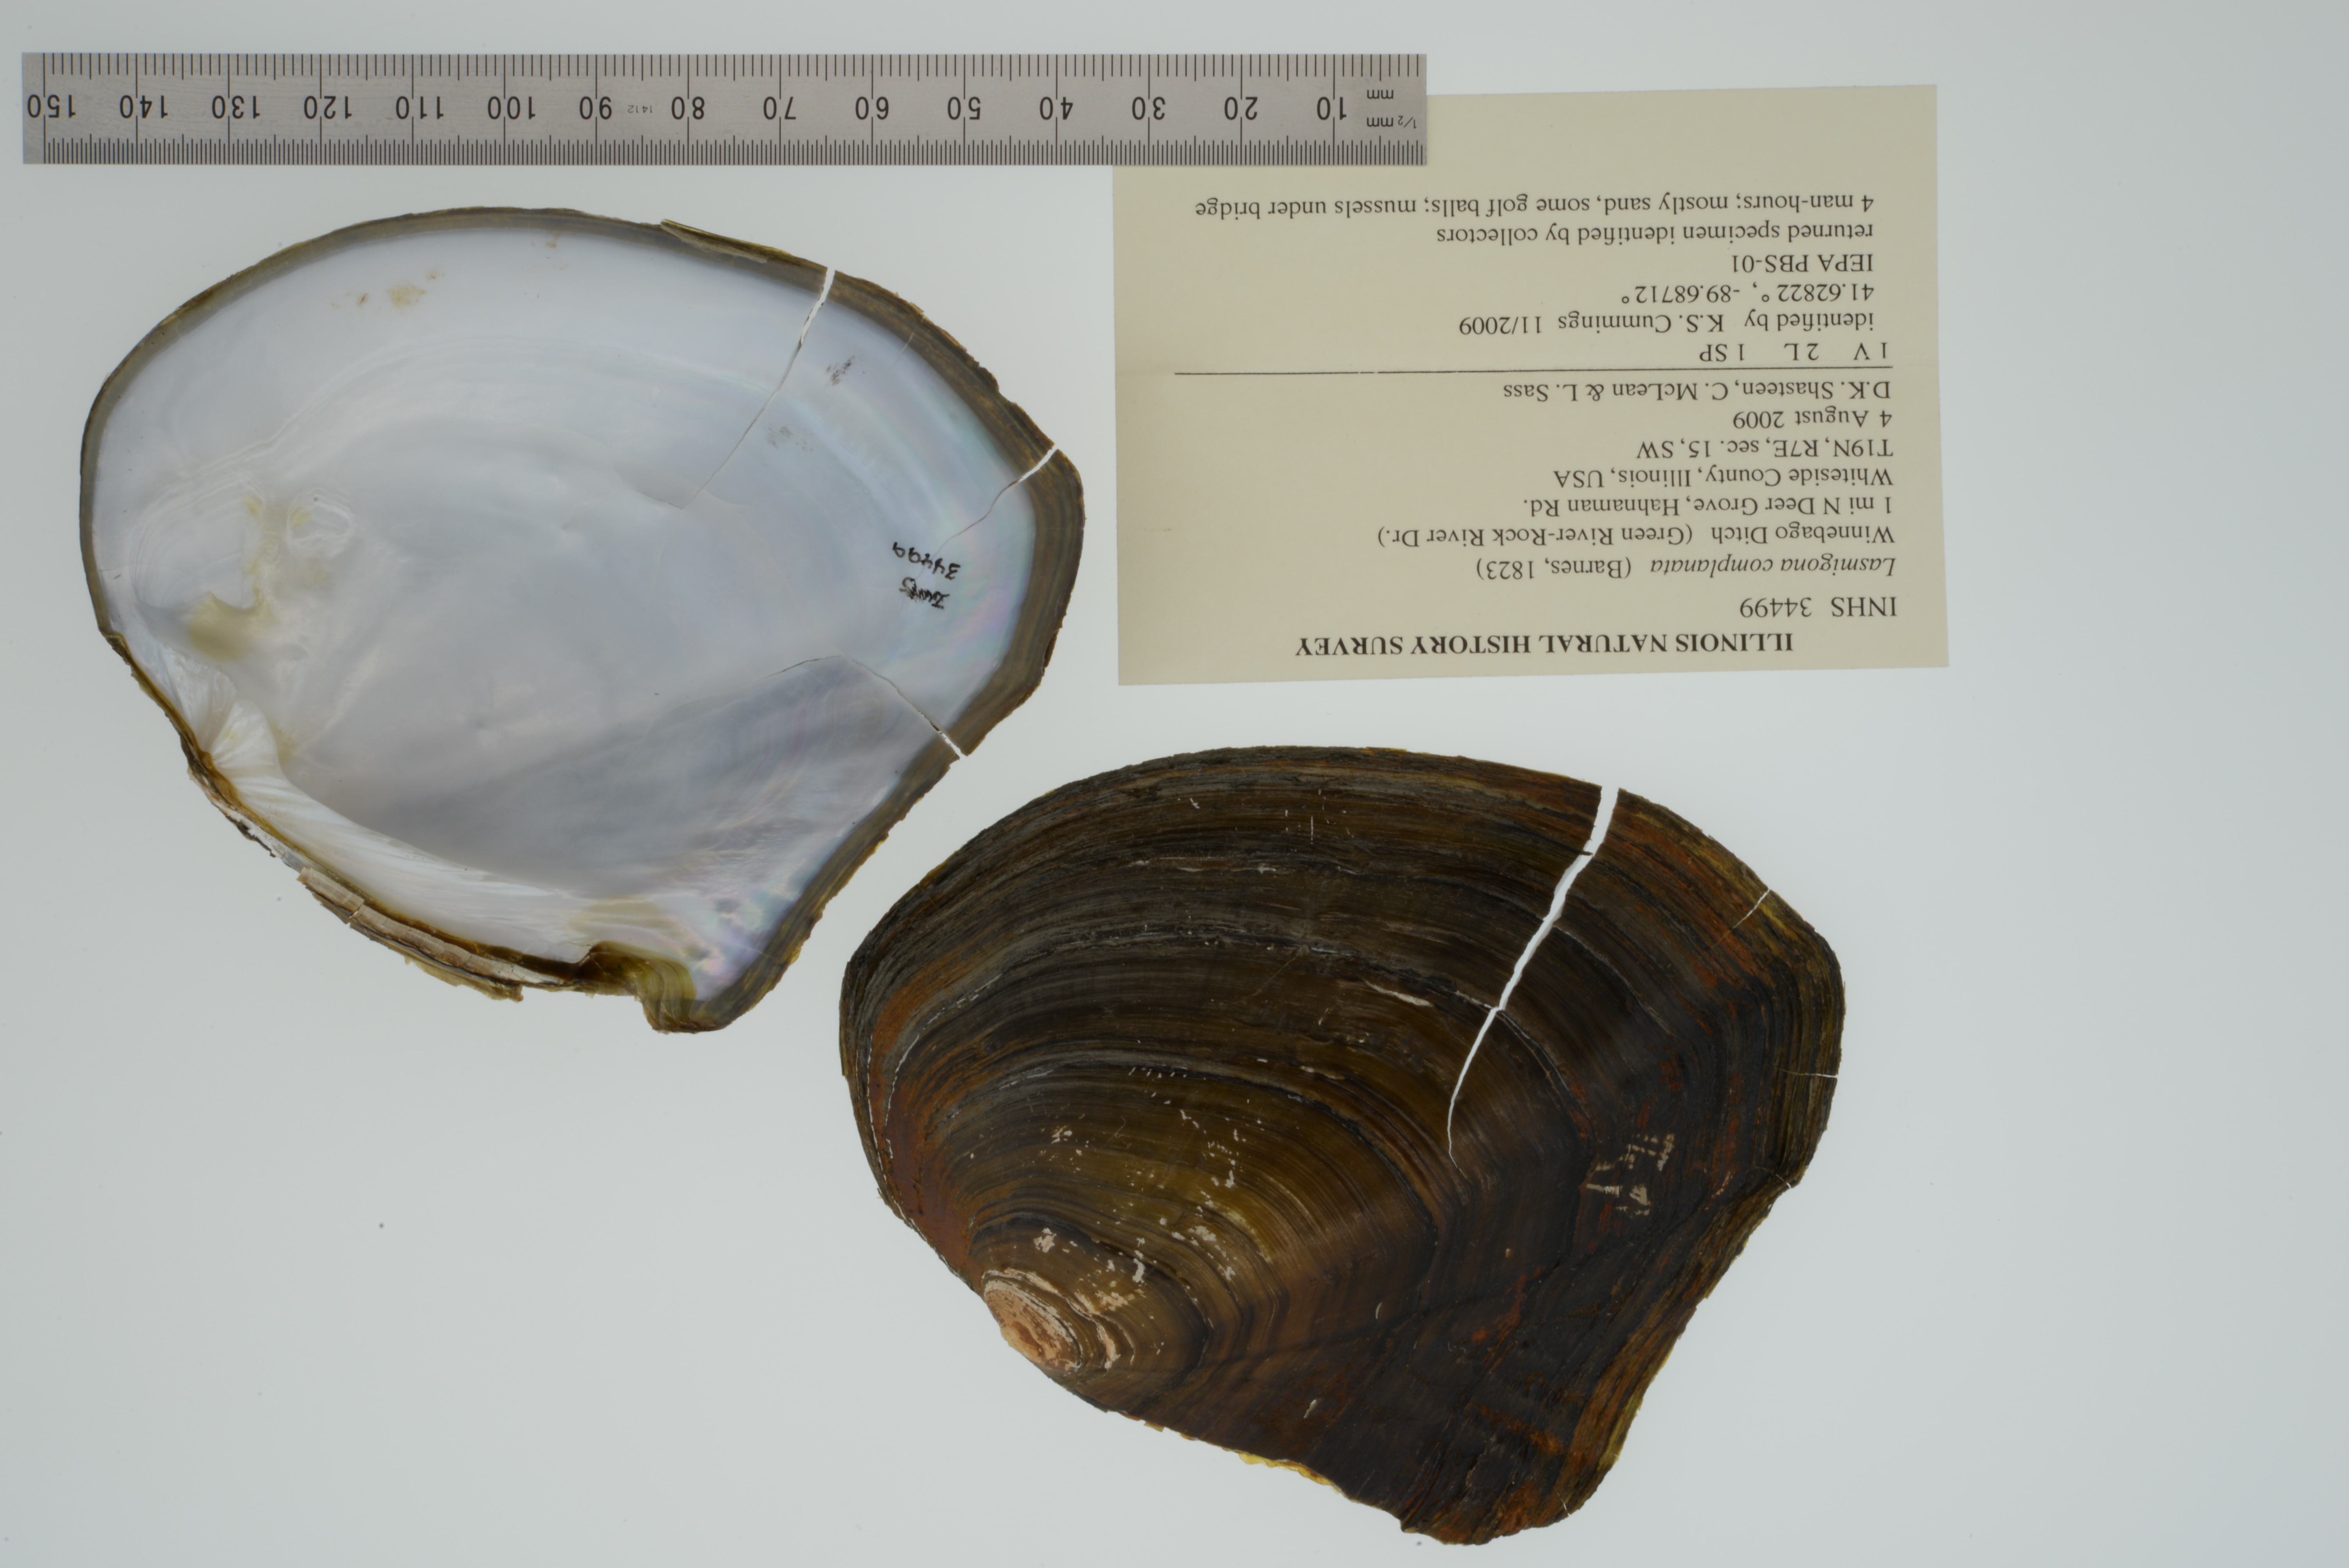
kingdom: Animalia
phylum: Mollusca
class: Bivalvia
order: Unionida
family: Unionidae
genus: Lasmigona
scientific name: Lasmigona complanata
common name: White heelsplitter
